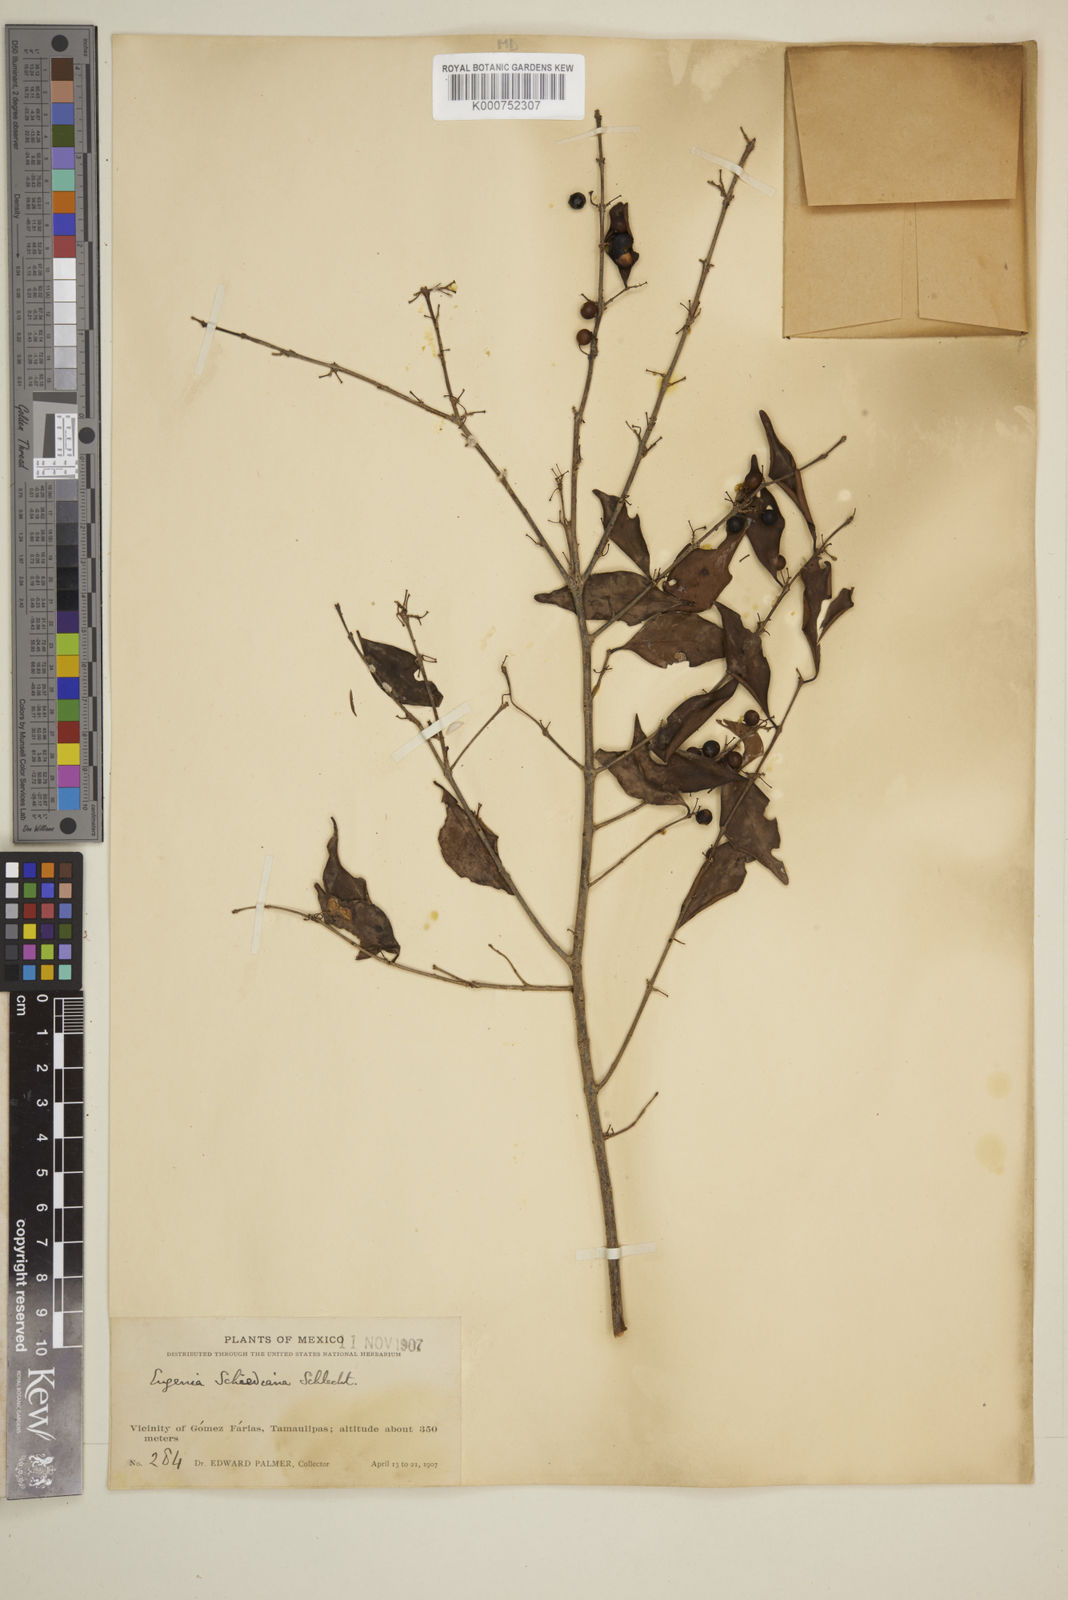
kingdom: Plantae
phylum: Tracheophyta
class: Magnoliopsida
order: Myrtales
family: Myrtaceae
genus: Eugenia
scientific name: Eugenia capuli
